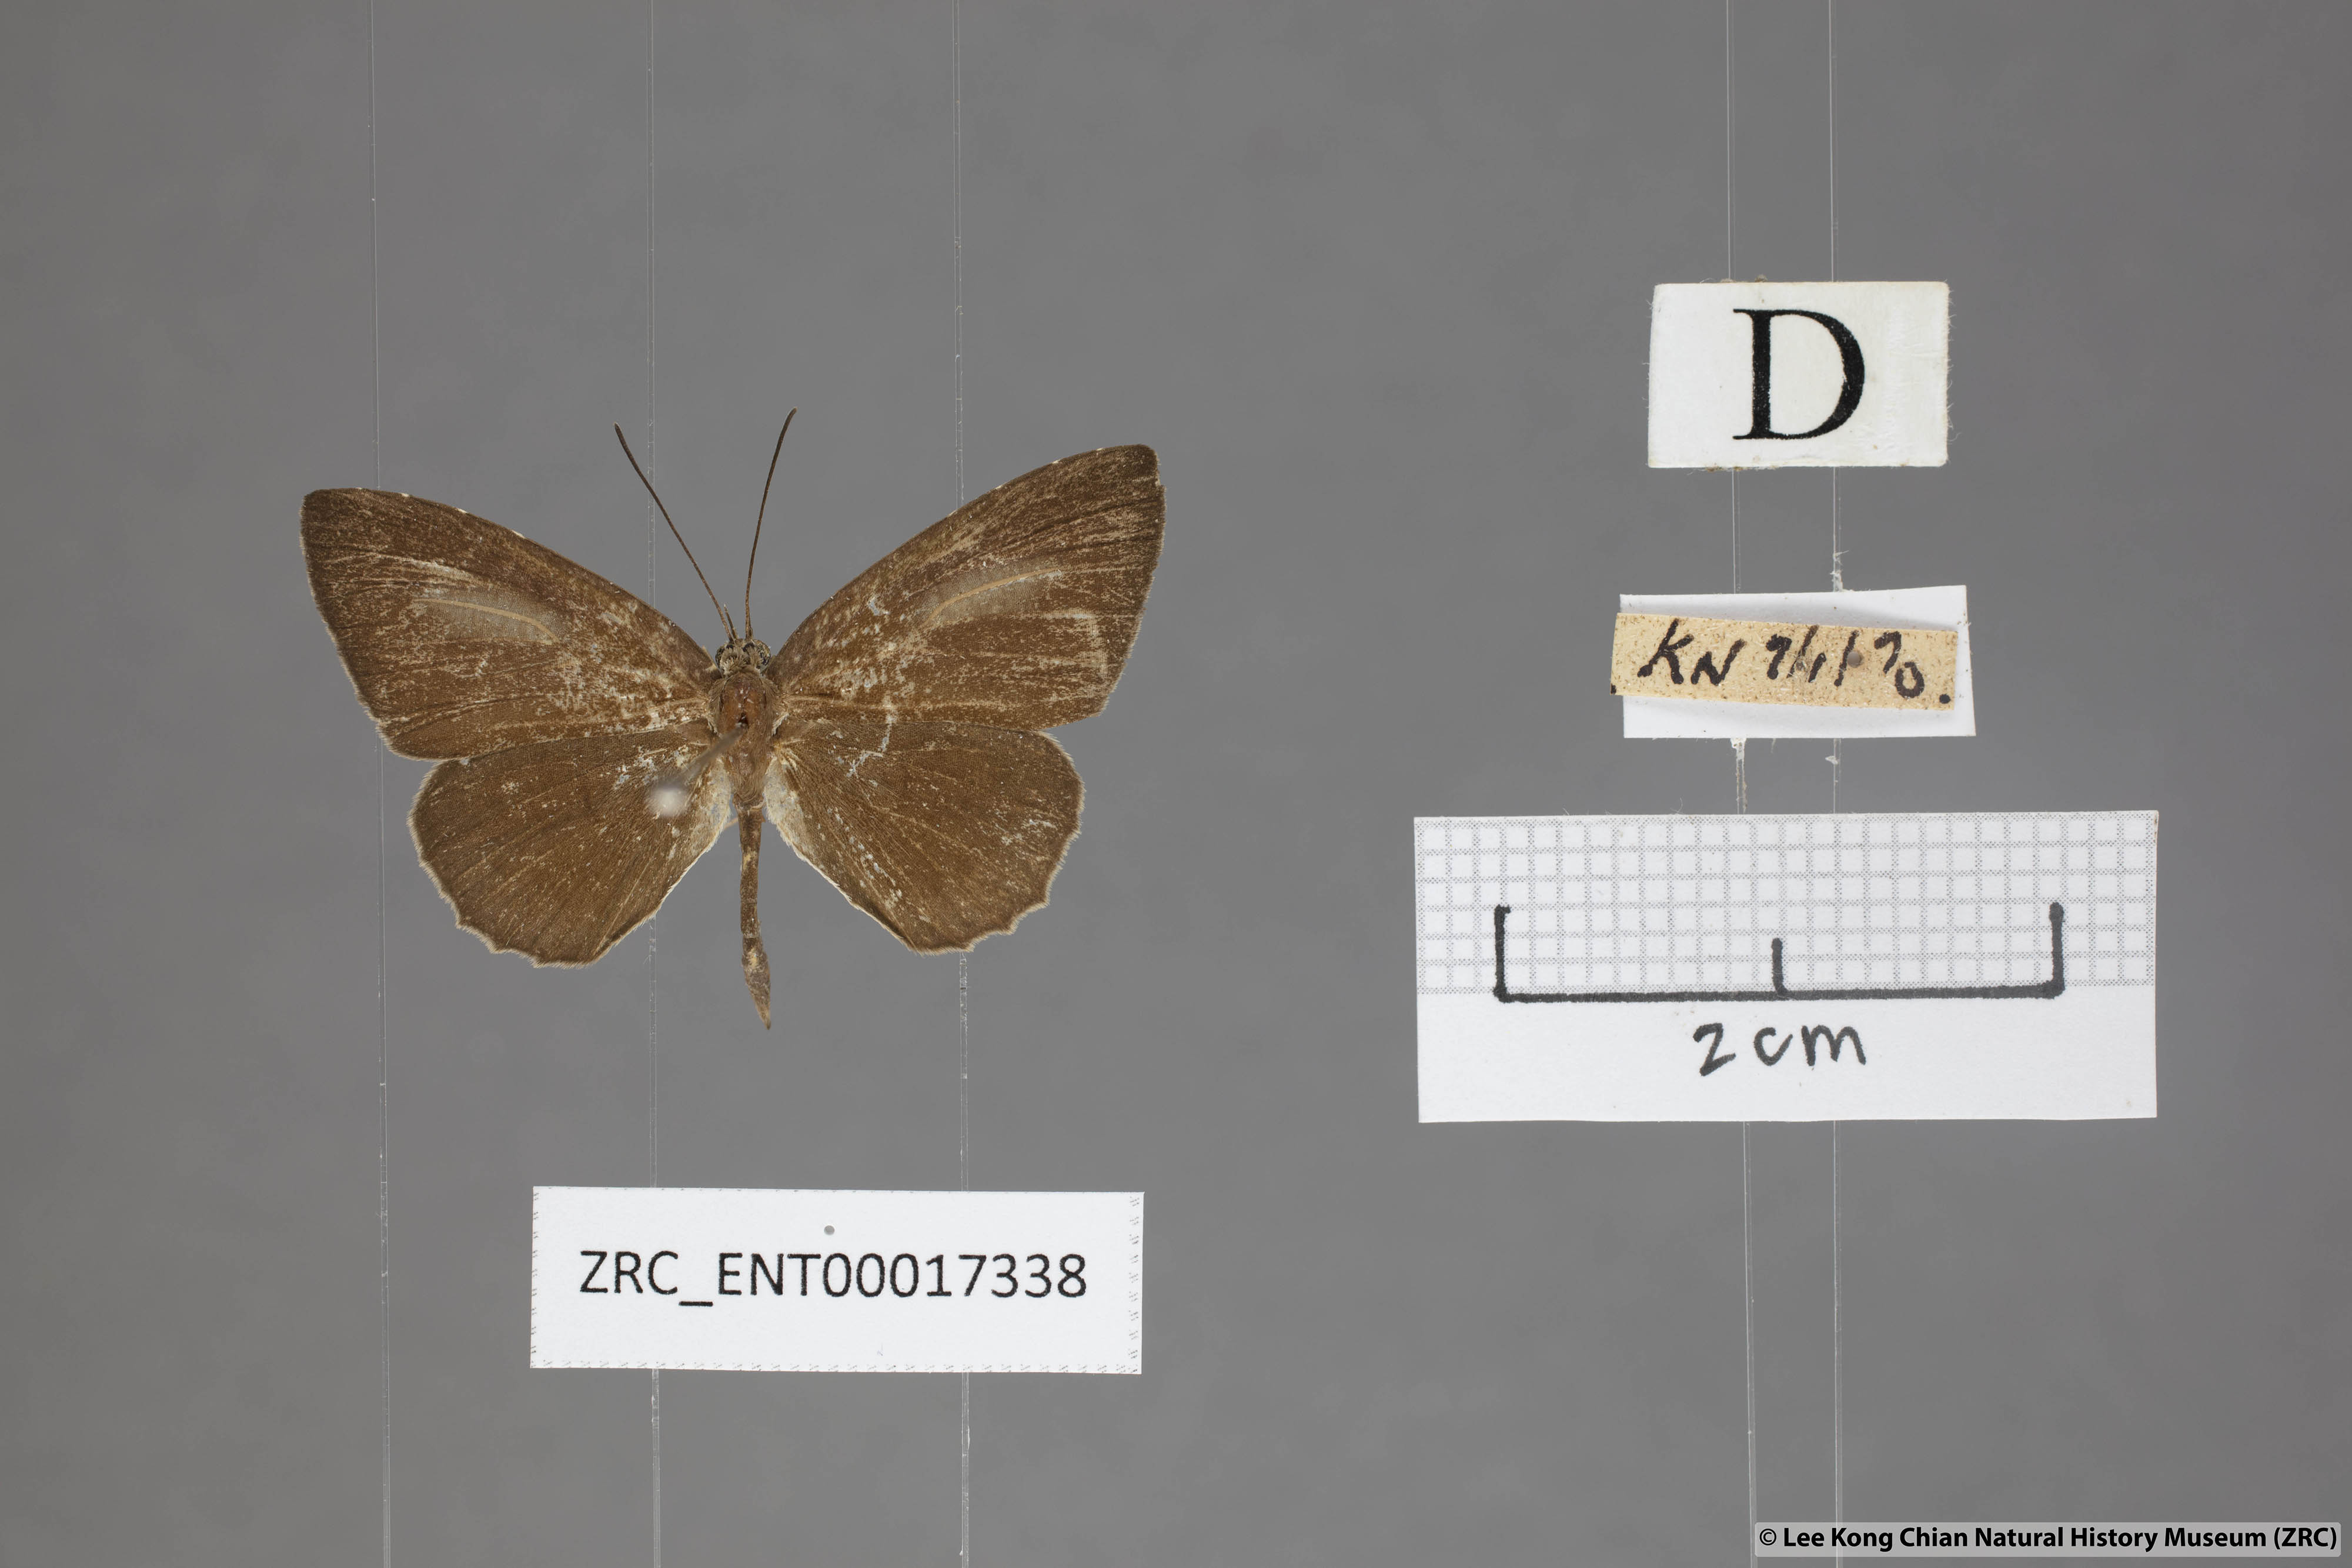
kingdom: Animalia
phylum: Arthropoda
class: Insecta
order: Lepidoptera
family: Lycaenidae
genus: Allotinus
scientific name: Allotinus sarastes
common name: Peninsular darkie
